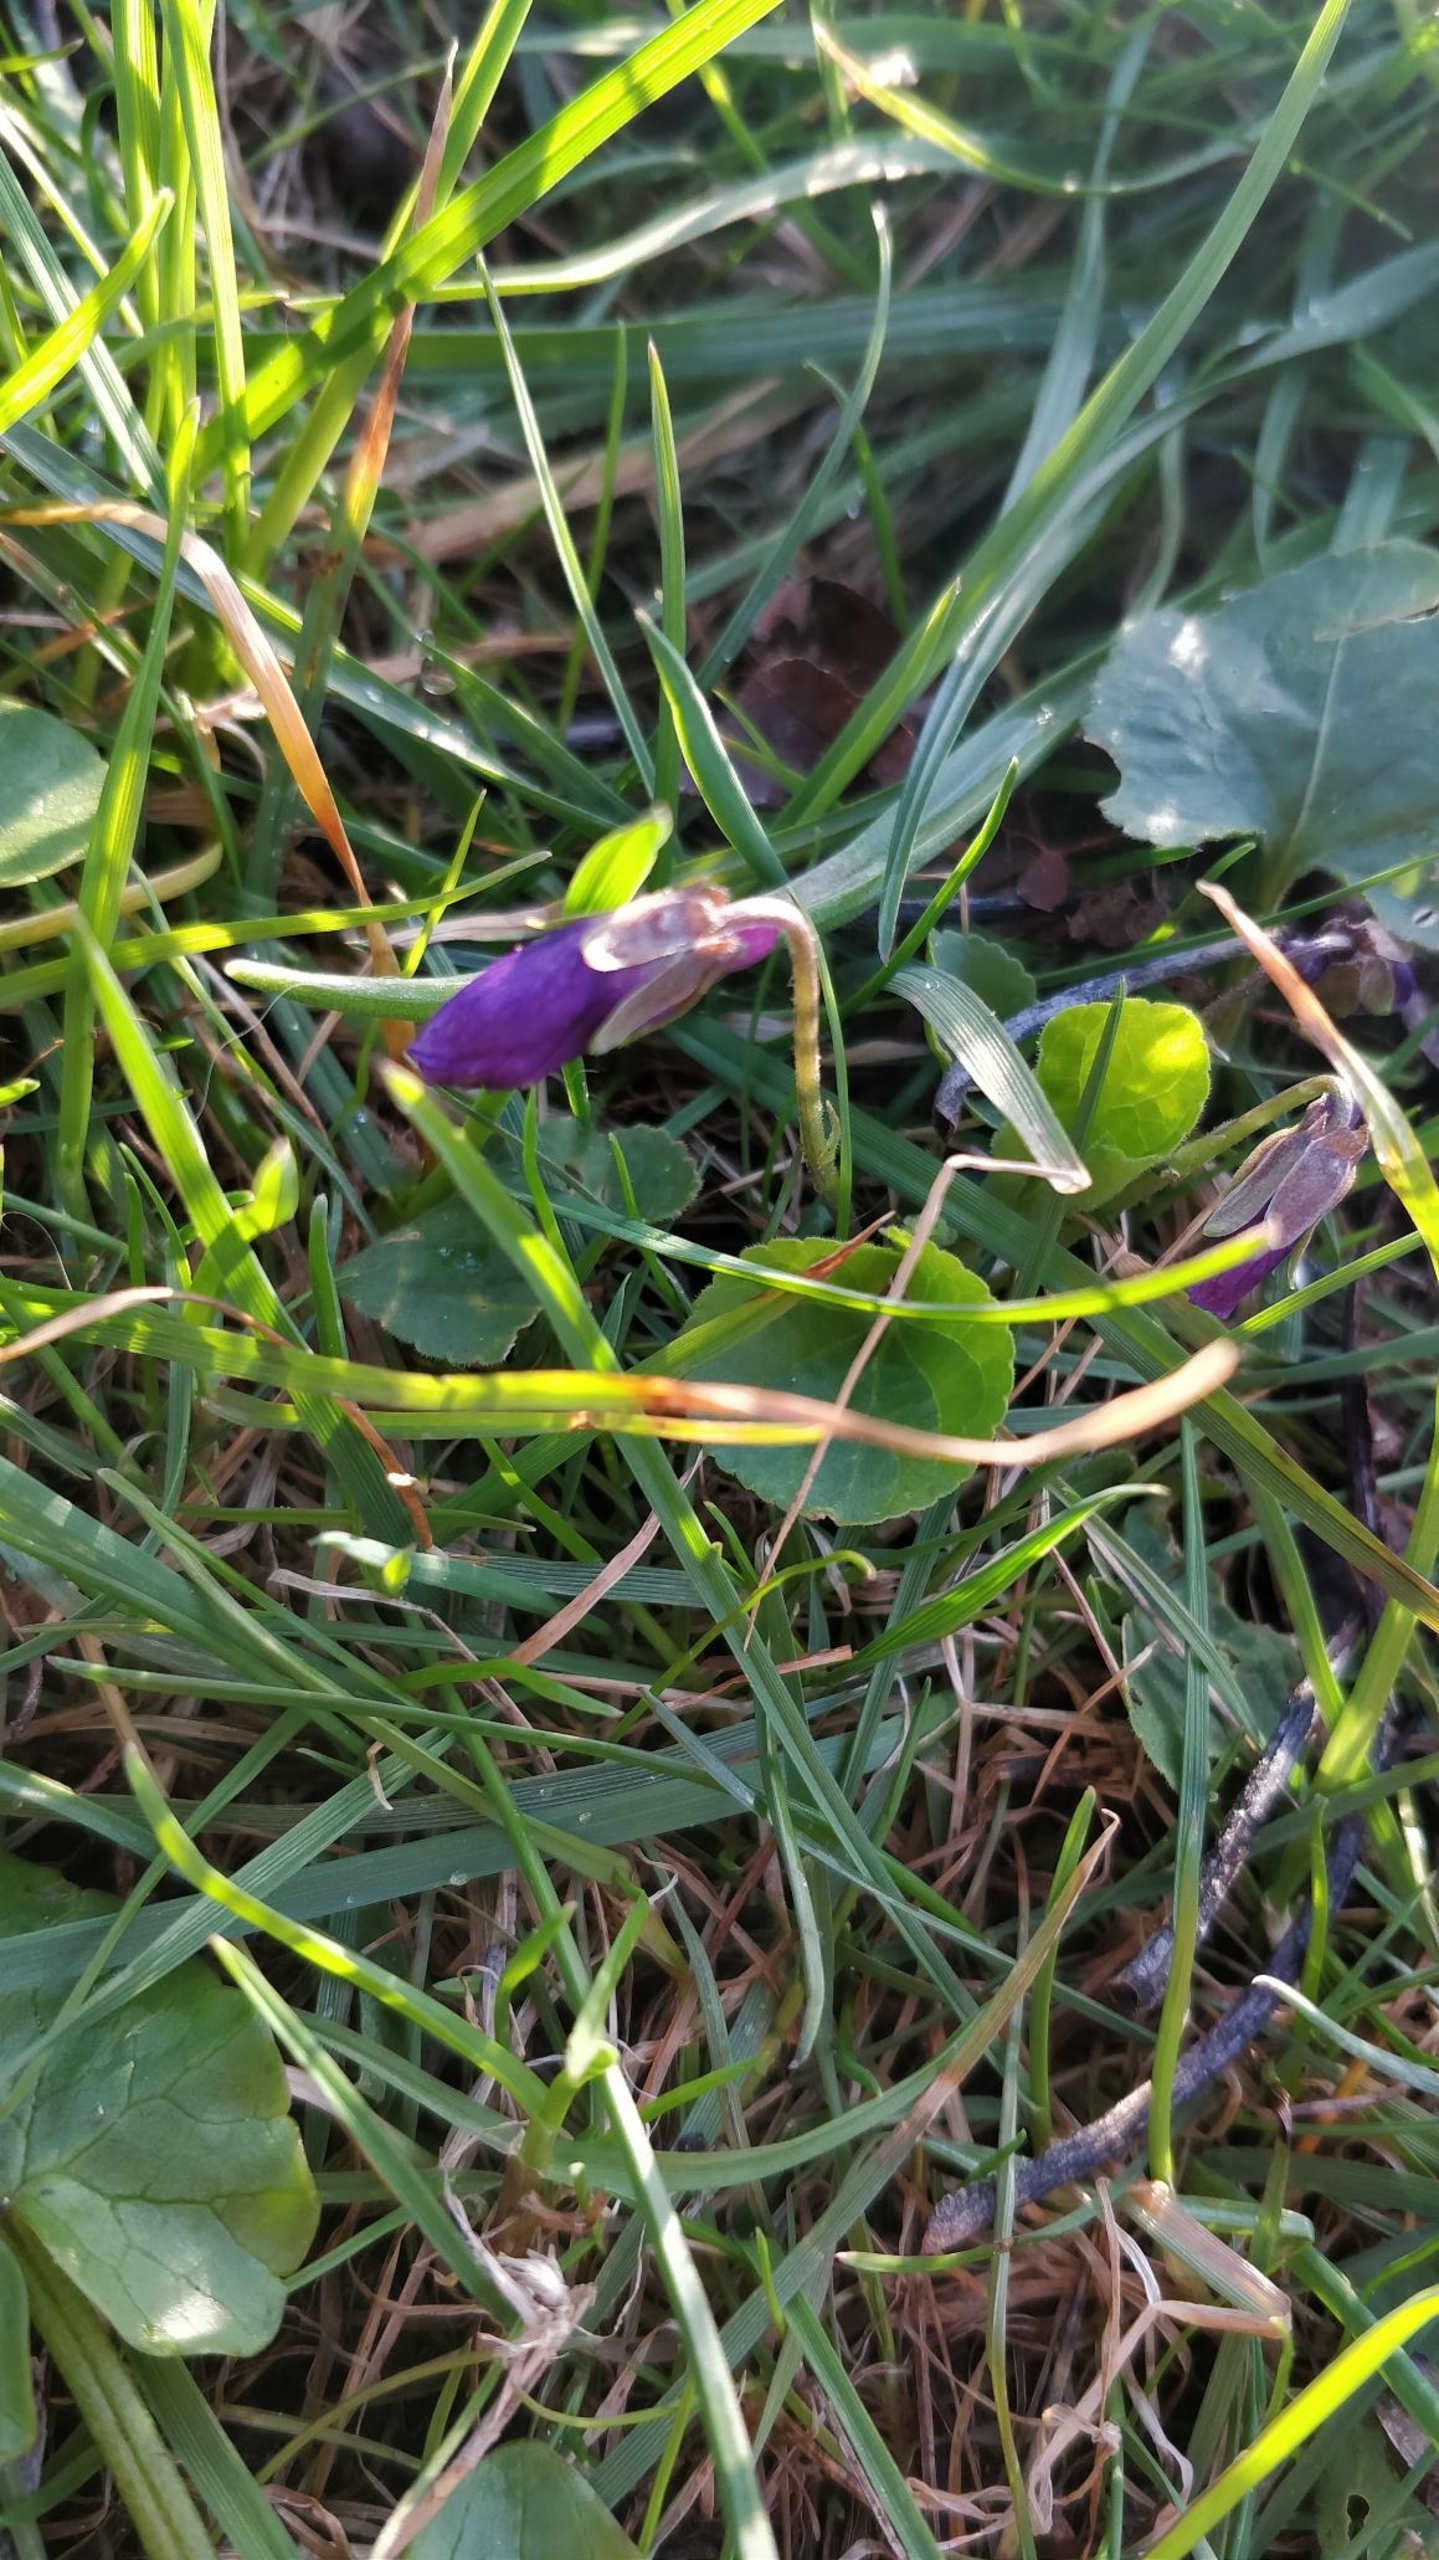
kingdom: Plantae
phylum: Tracheophyta
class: Magnoliopsida
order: Malpighiales
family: Violaceae
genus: Viola
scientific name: Viola odorata
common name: Marts-viol
